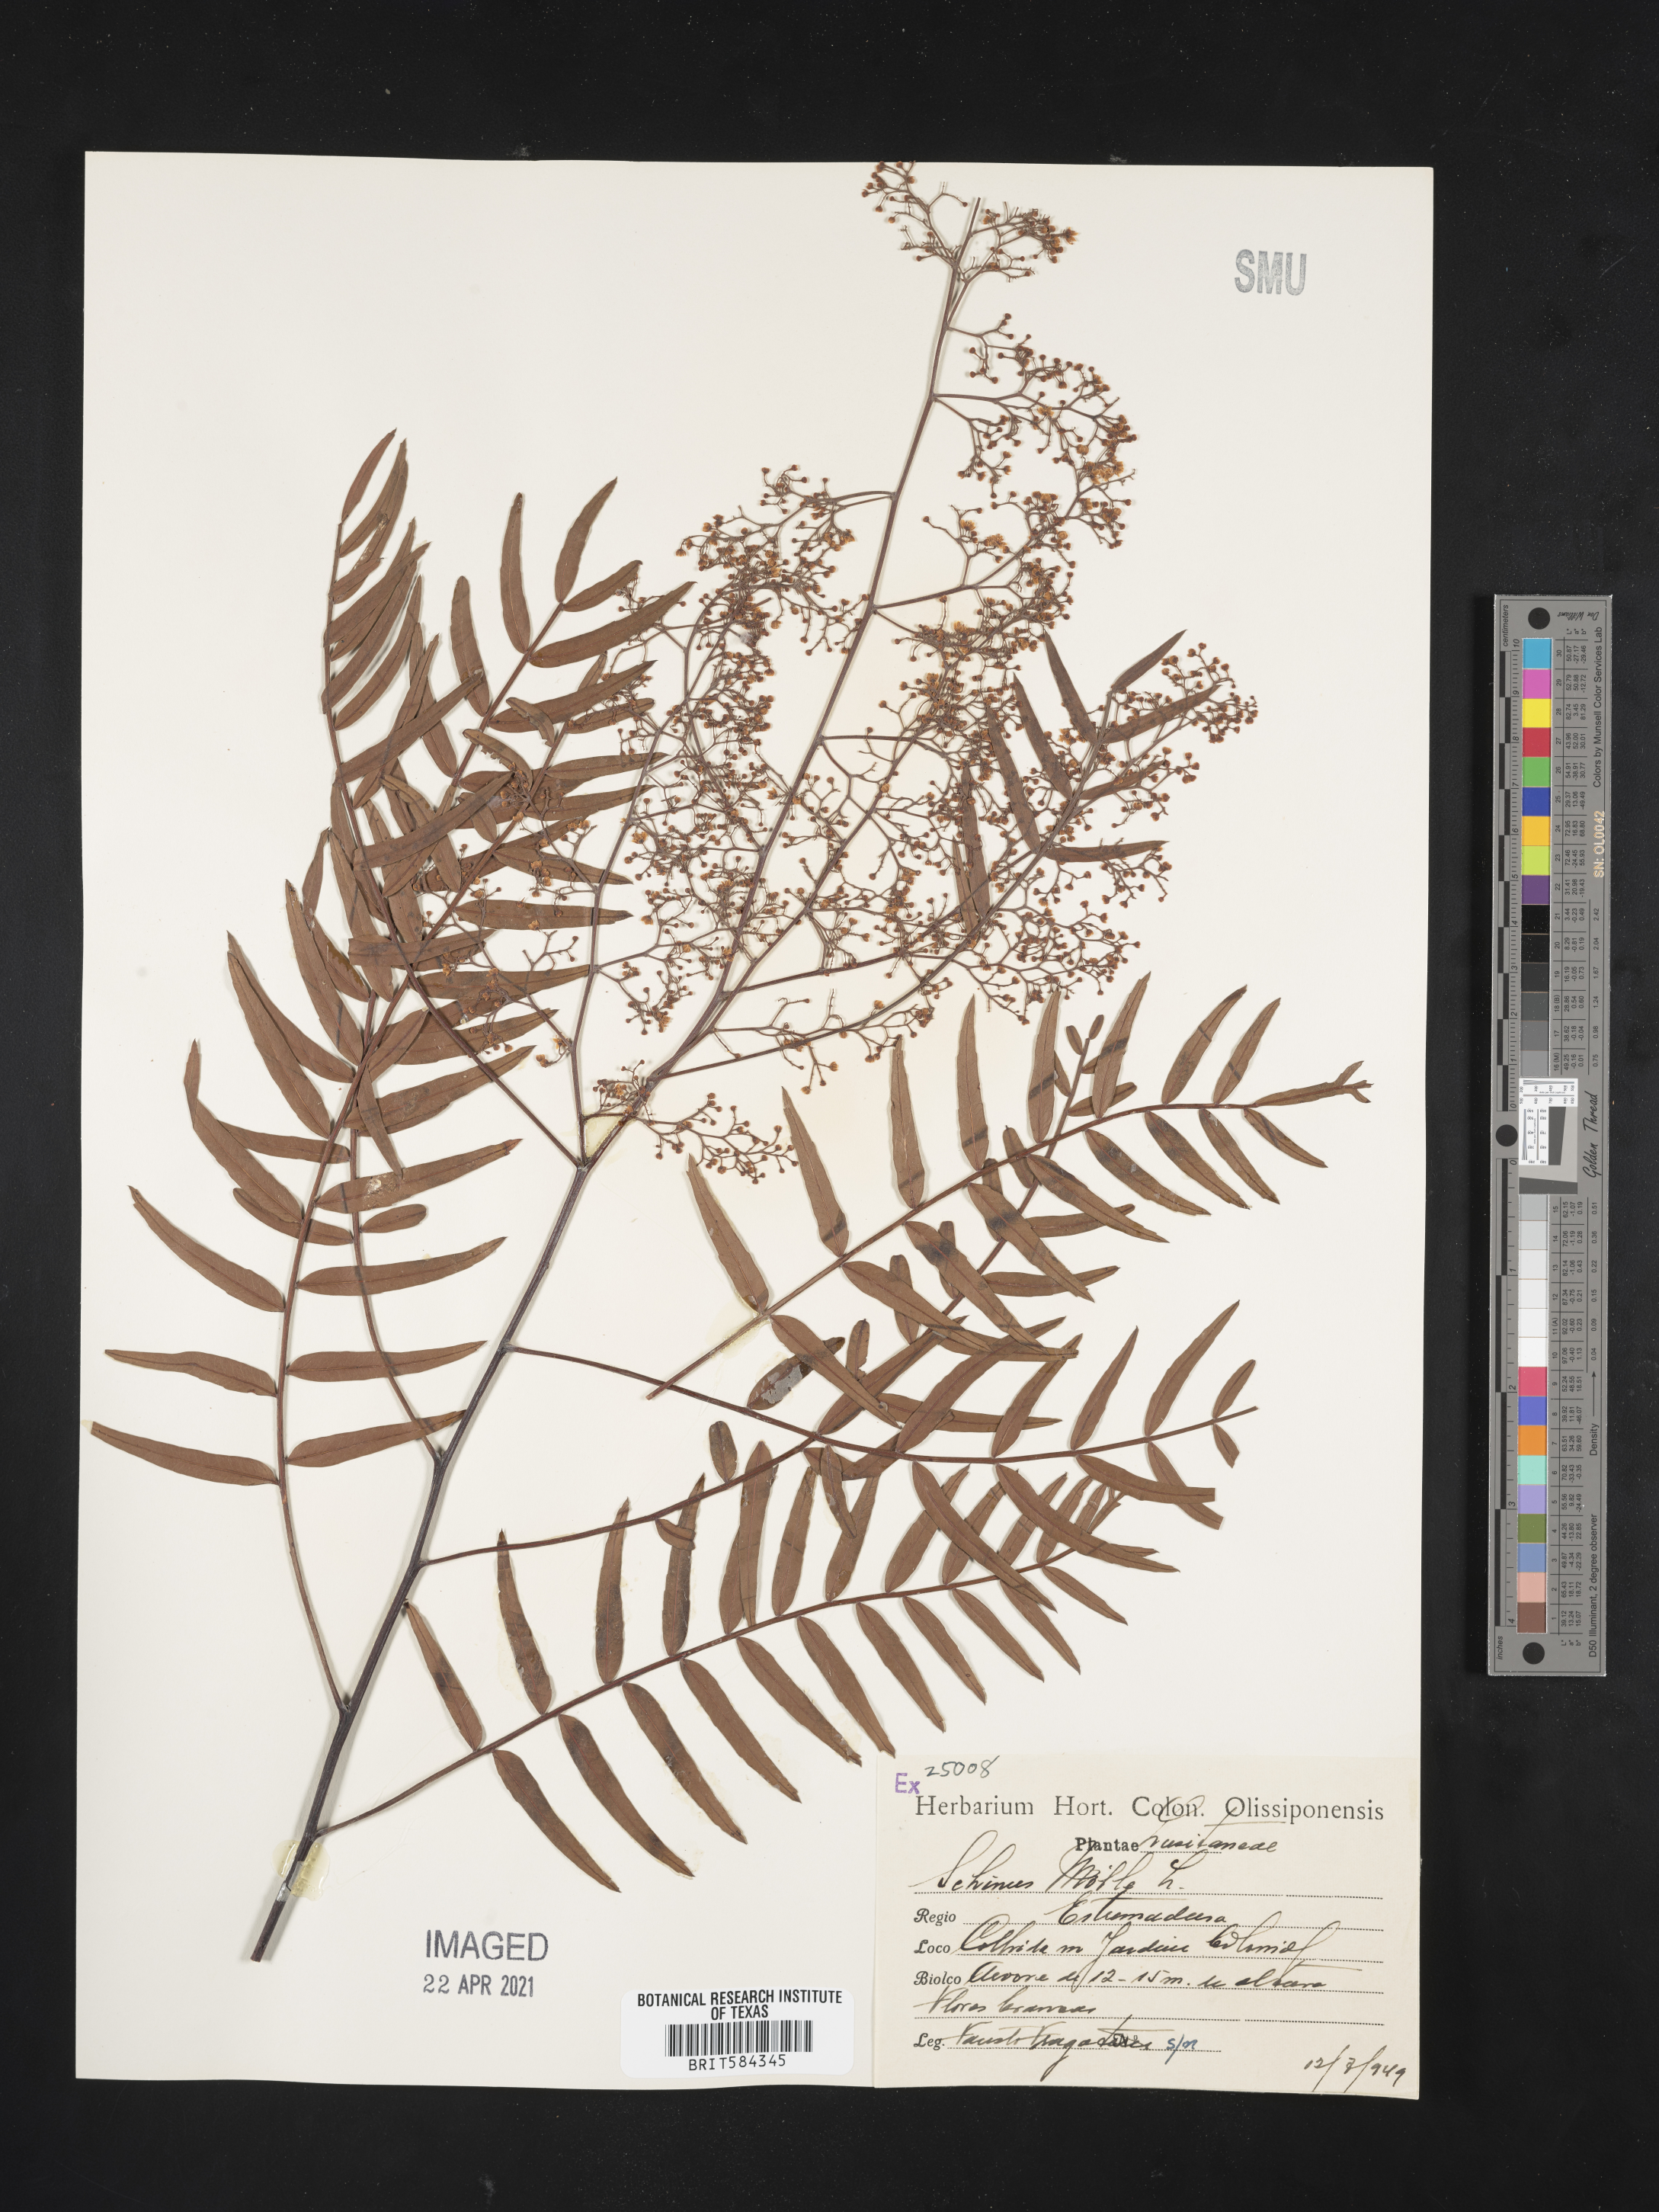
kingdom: Plantae
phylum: Tracheophyta
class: Magnoliopsida
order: Sapindales
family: Anacardiaceae
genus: Schinus
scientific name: Schinus molle
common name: Peruvian peppertree
